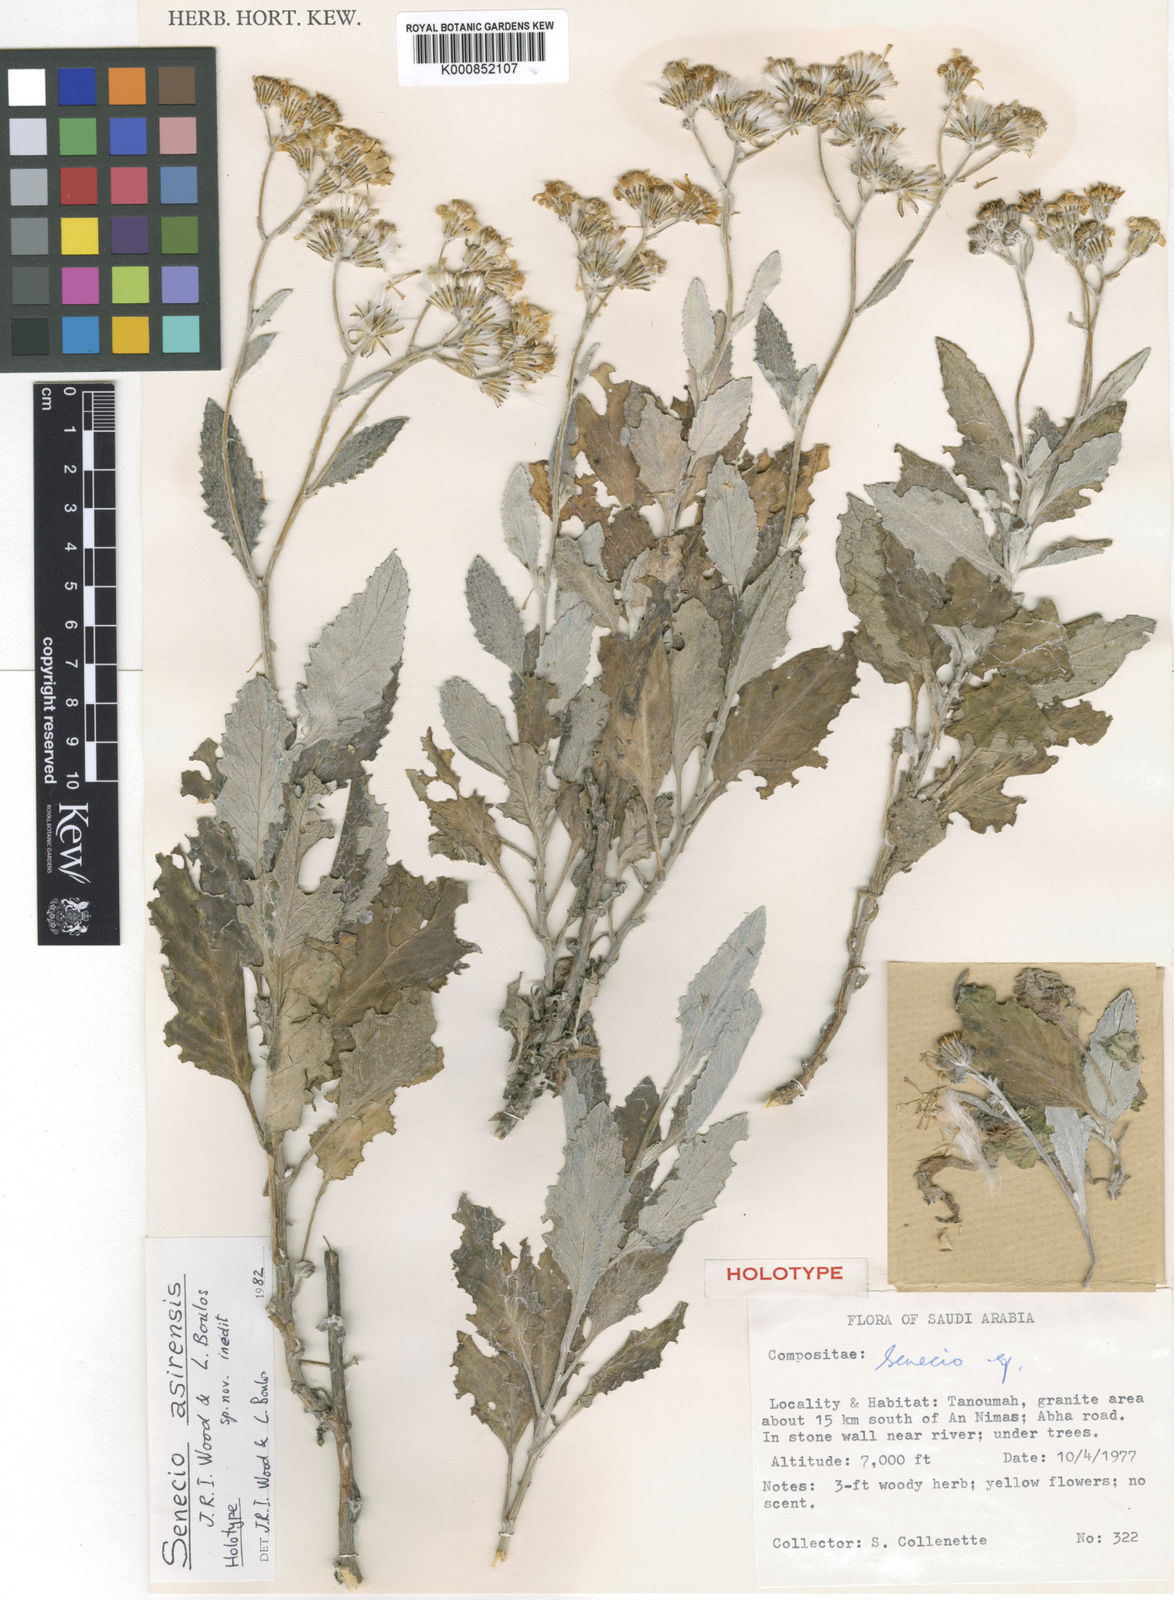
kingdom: Plantae
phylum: Tracheophyta
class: Magnoliopsida
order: Asterales
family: Asteraceae
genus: Senecio
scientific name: Senecio asirensis
